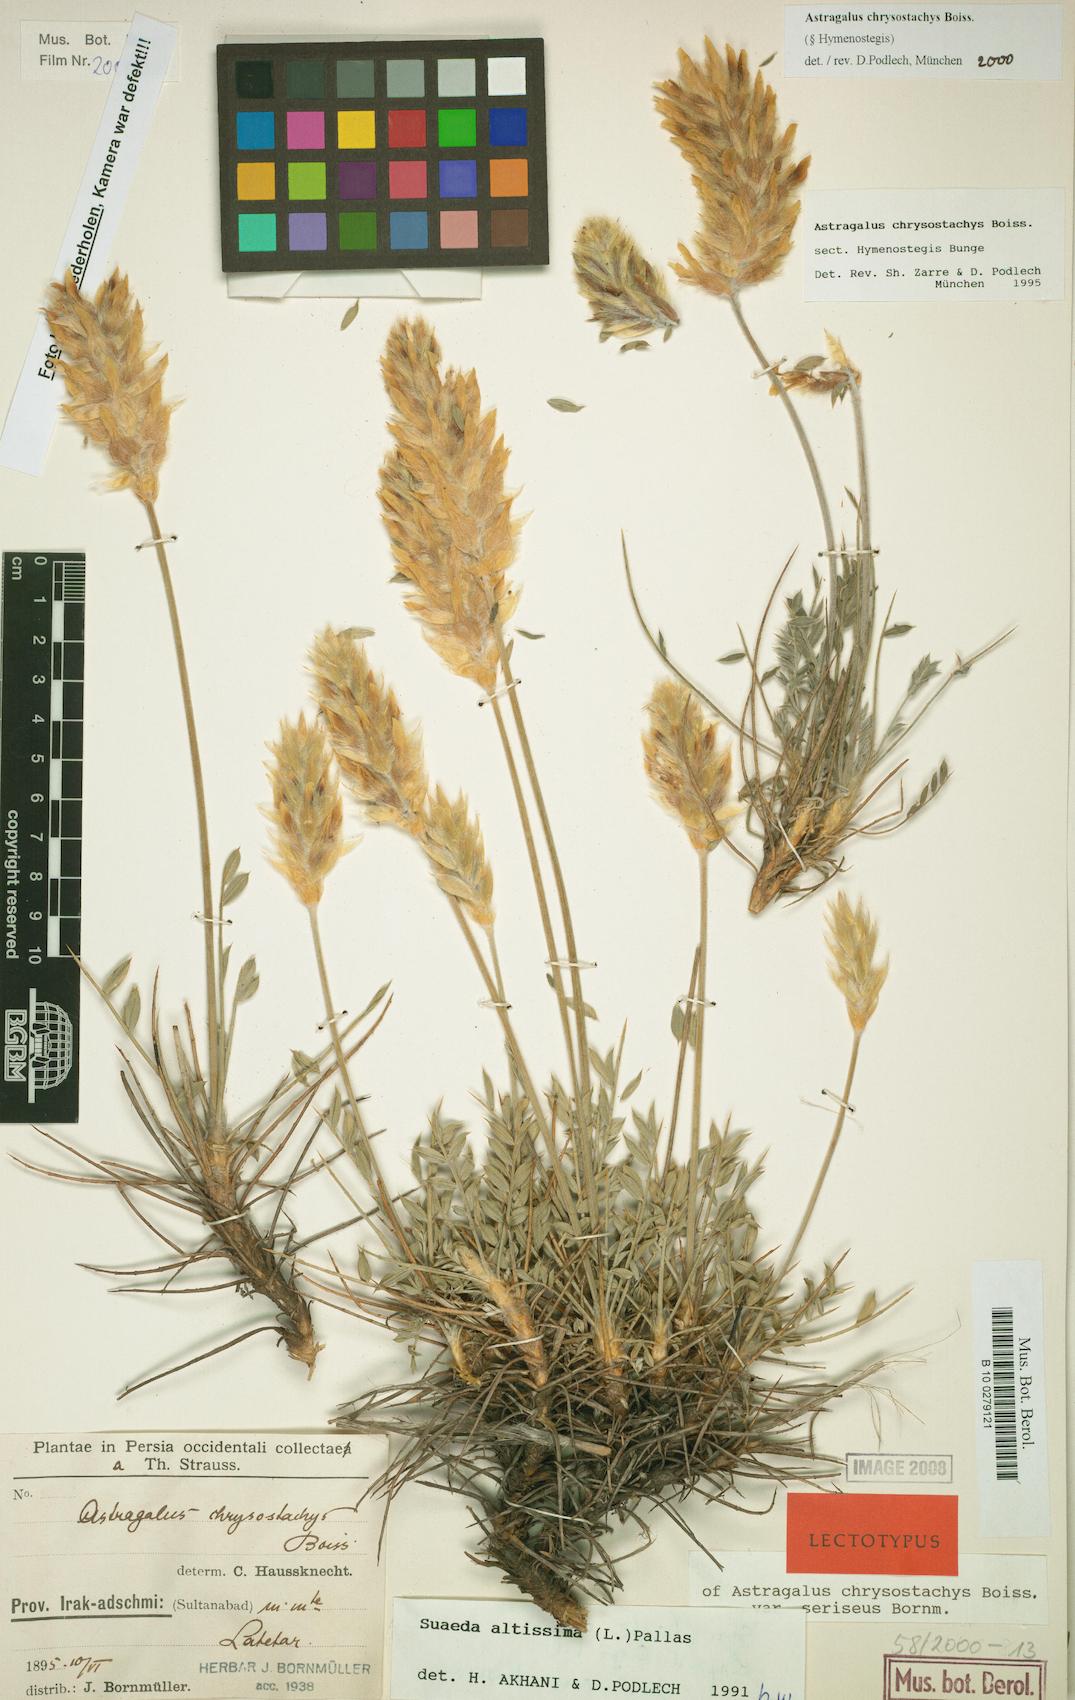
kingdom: Plantae
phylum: Tracheophyta
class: Magnoliopsida
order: Fabales
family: Fabaceae
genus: Astragalus
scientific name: Astragalus chrysostachys
